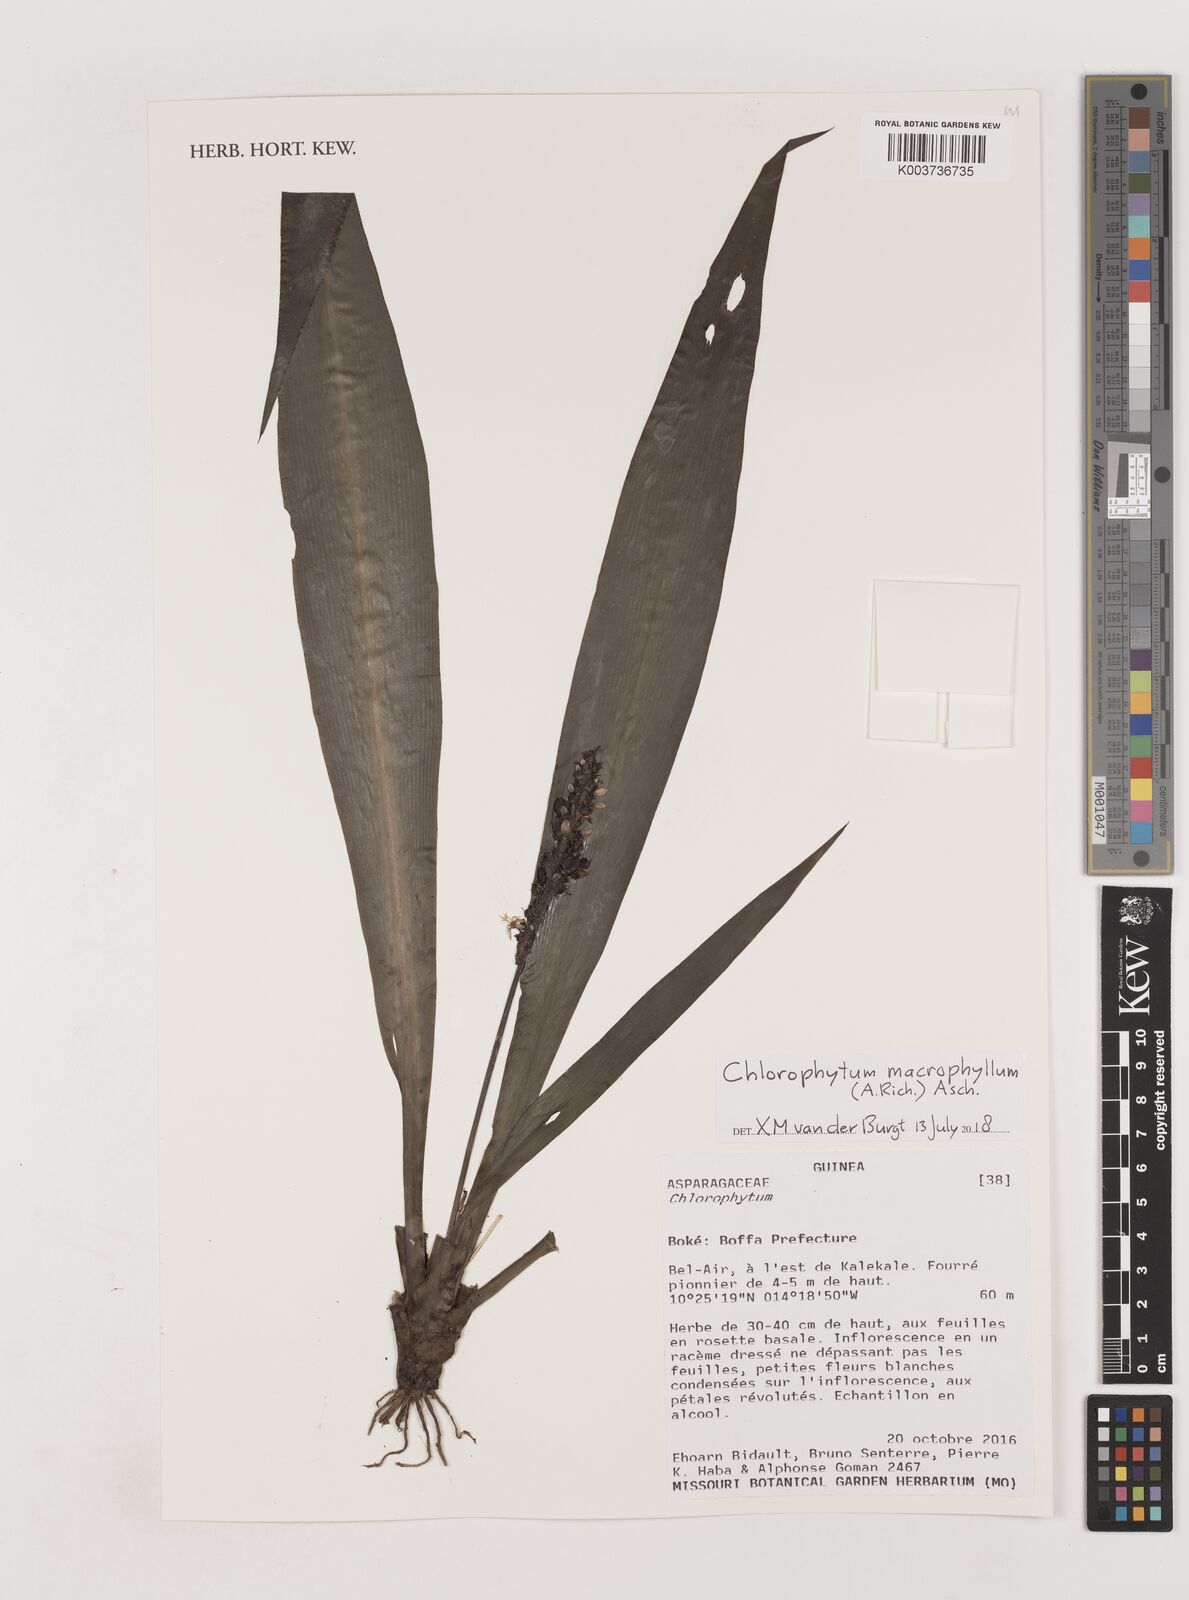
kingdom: Plantae
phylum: Tracheophyta
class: Liliopsida
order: Asparagales
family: Asparagaceae
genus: Chlorophytum
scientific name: Chlorophytum macrophyllum
